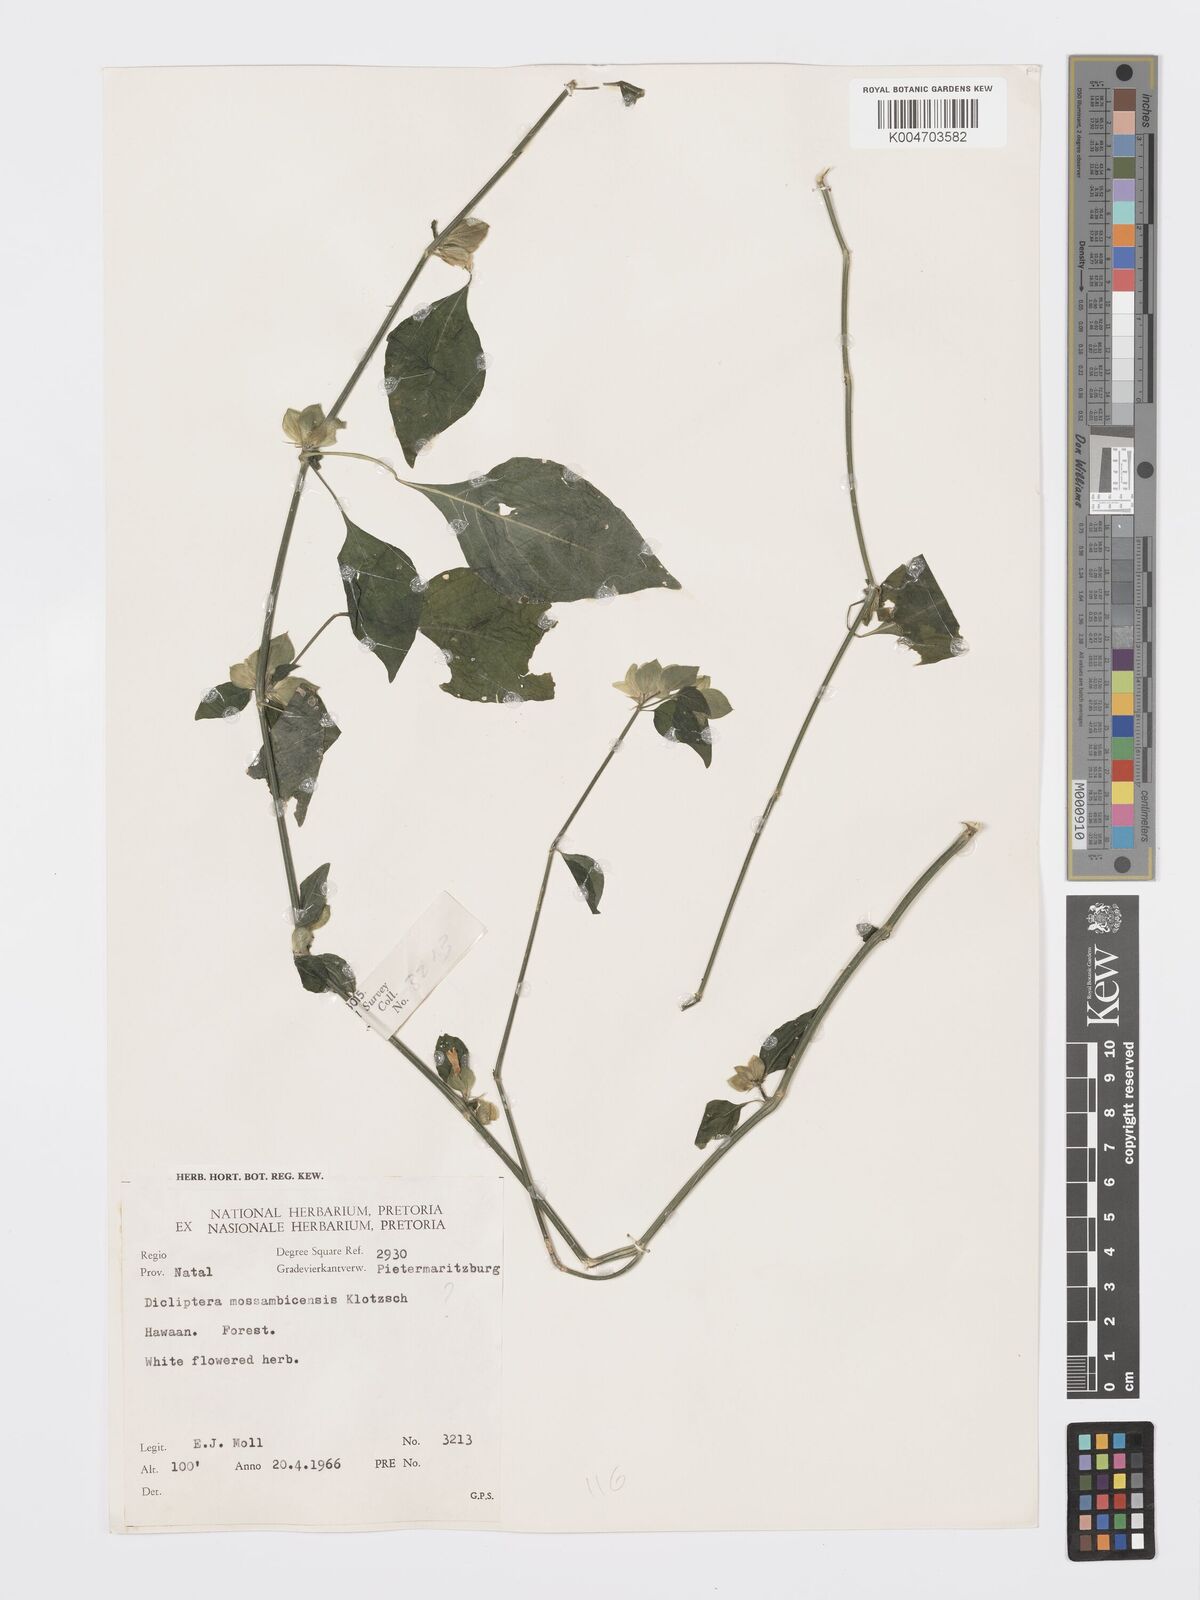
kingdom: Plantae
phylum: Tracheophyta
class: Magnoliopsida
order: Lamiales
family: Acanthaceae
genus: Dicliptera
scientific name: Dicliptera heterostegia
